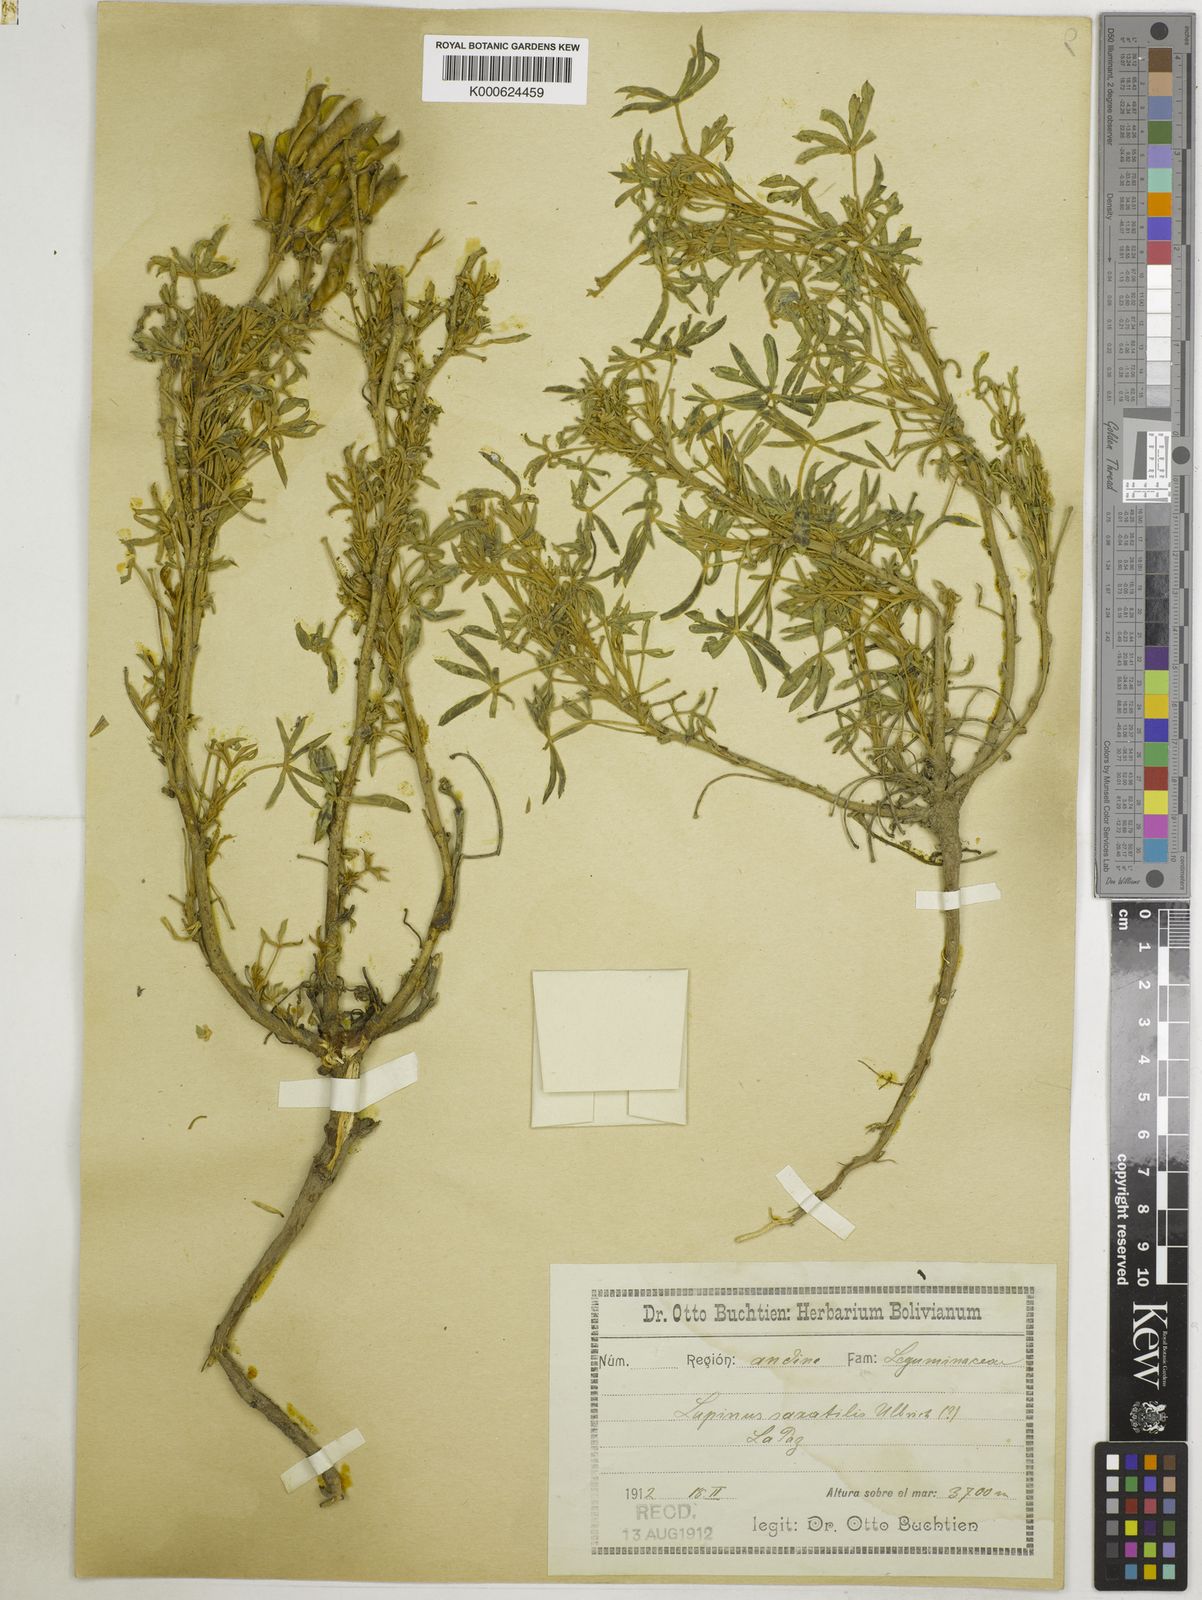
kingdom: Plantae
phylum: Tracheophyta
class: Magnoliopsida
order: Fabales
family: Fabaceae
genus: Lupinus
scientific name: Lupinus saxatilis
